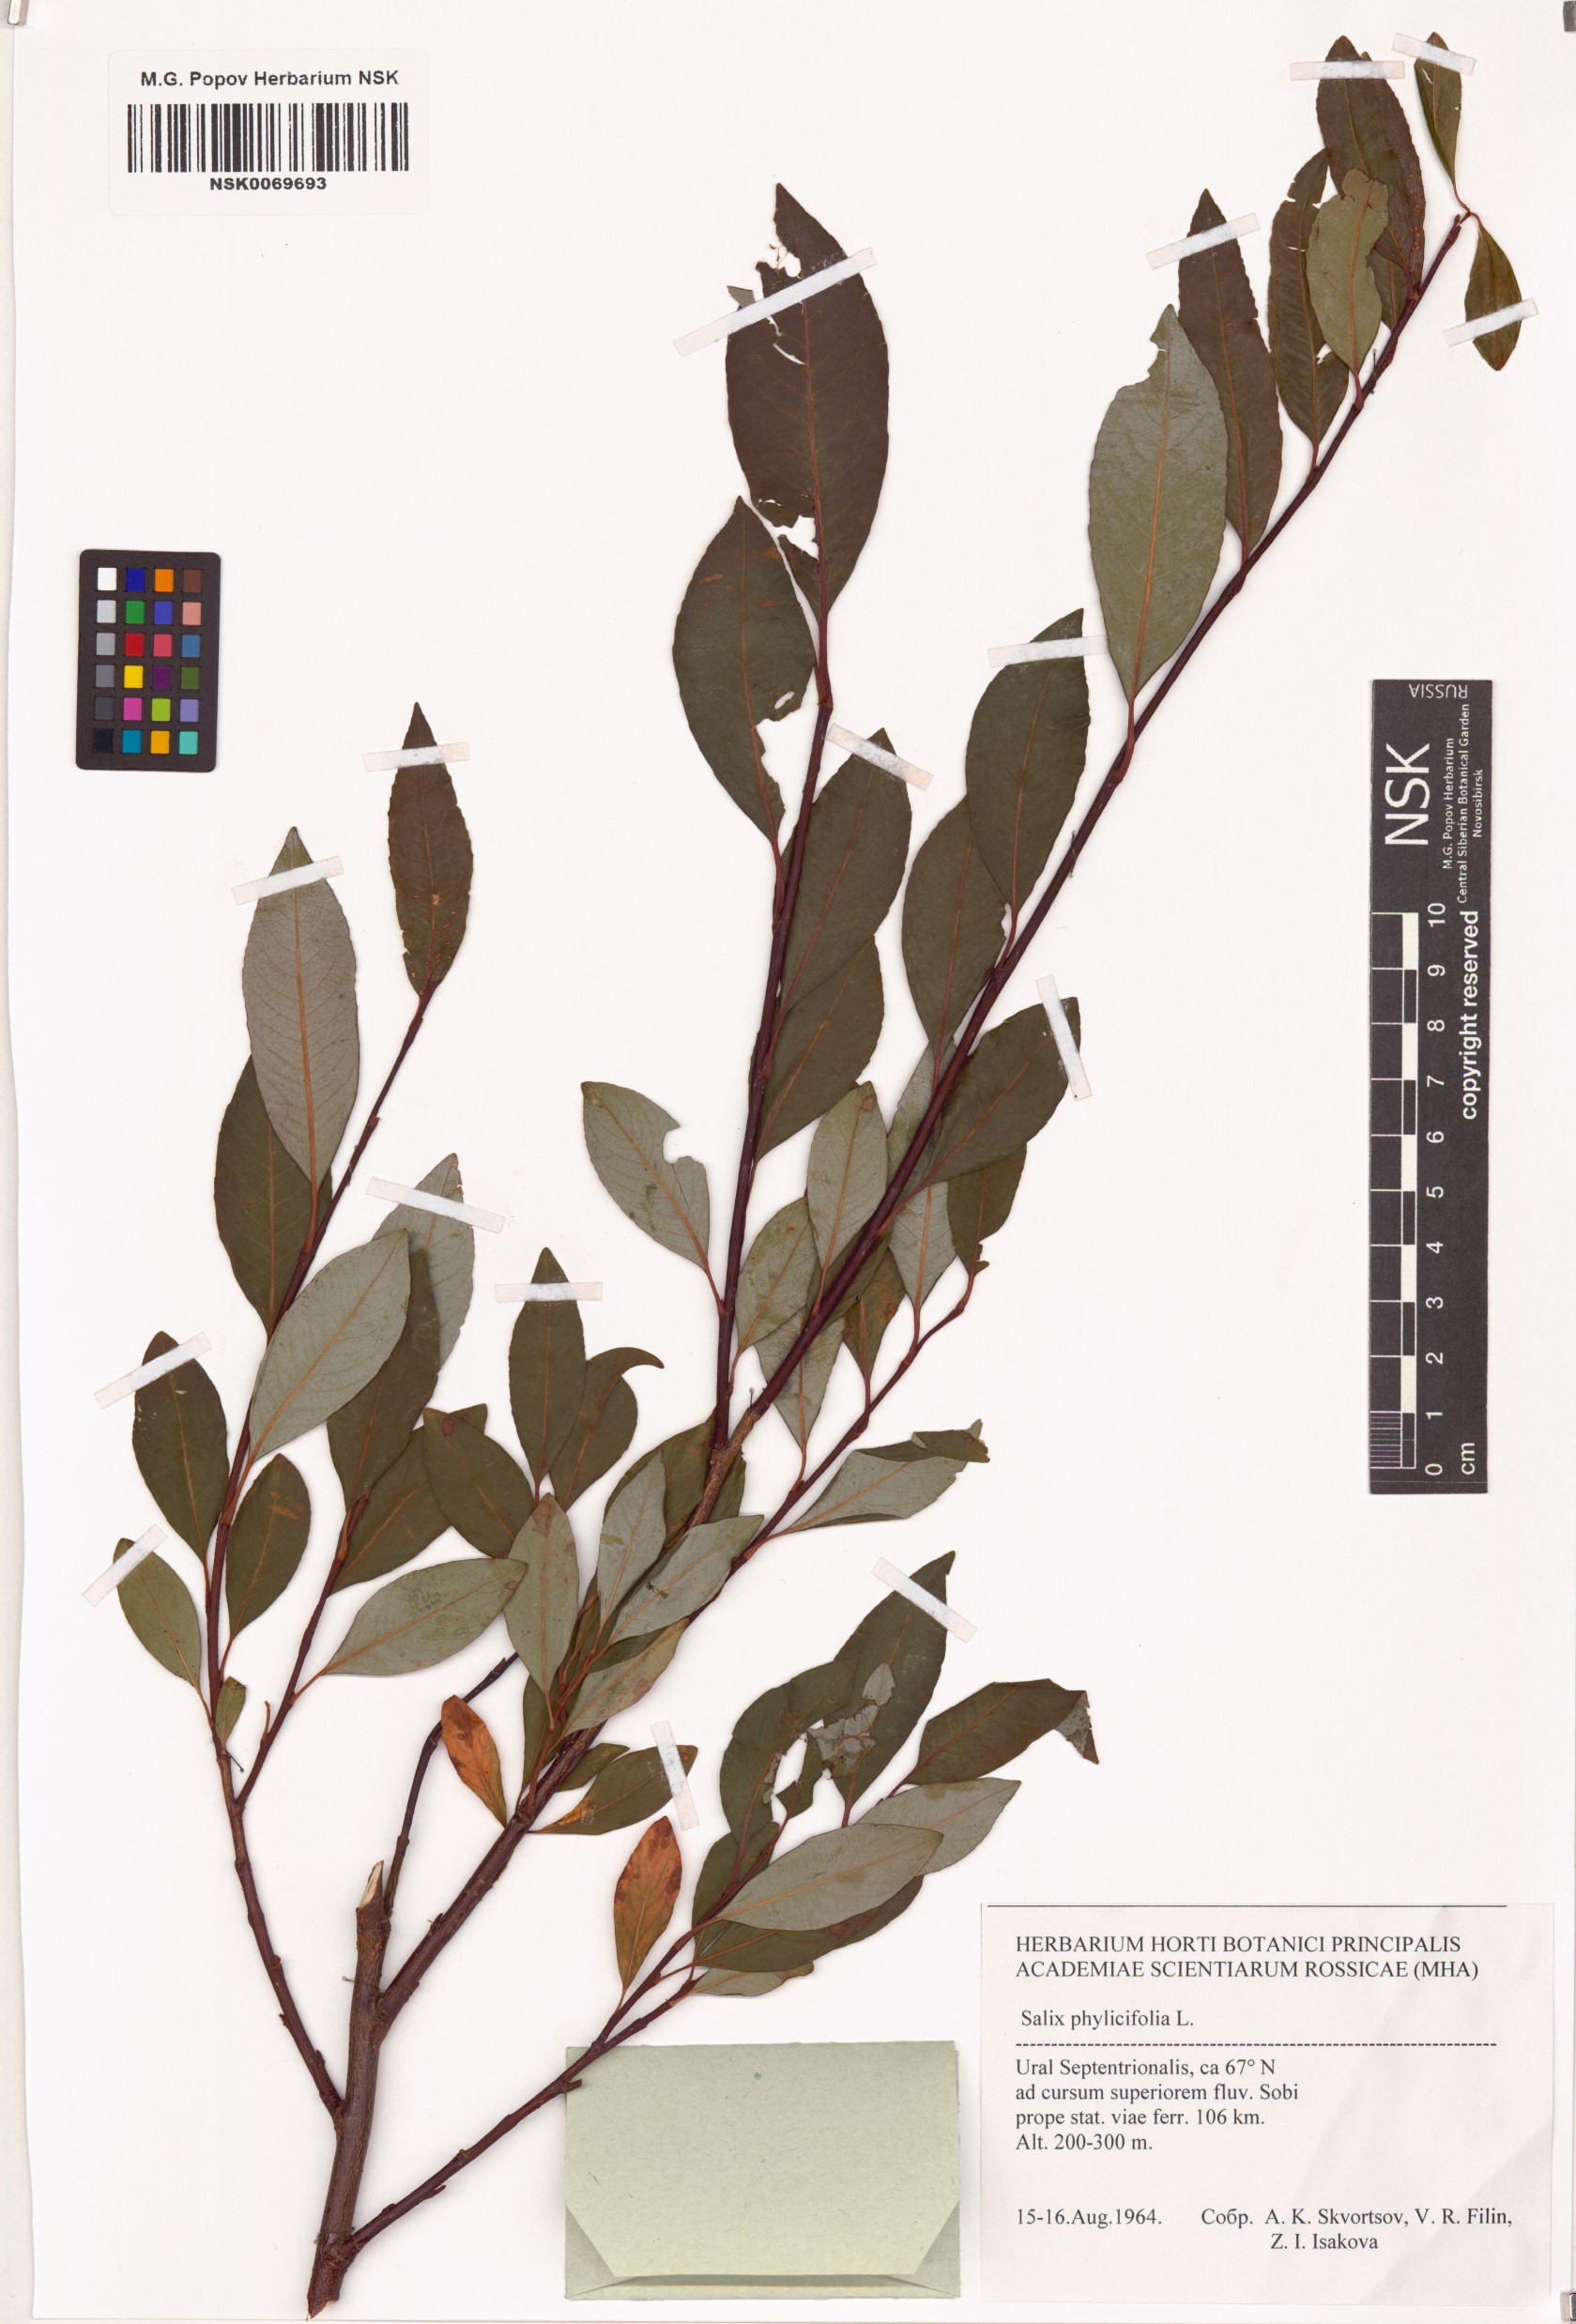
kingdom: Plantae
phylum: Tracheophyta
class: Magnoliopsida
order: Malpighiales
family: Salicaceae
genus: Salix
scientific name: Salix phylicifolia
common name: Tea-leaved willow
